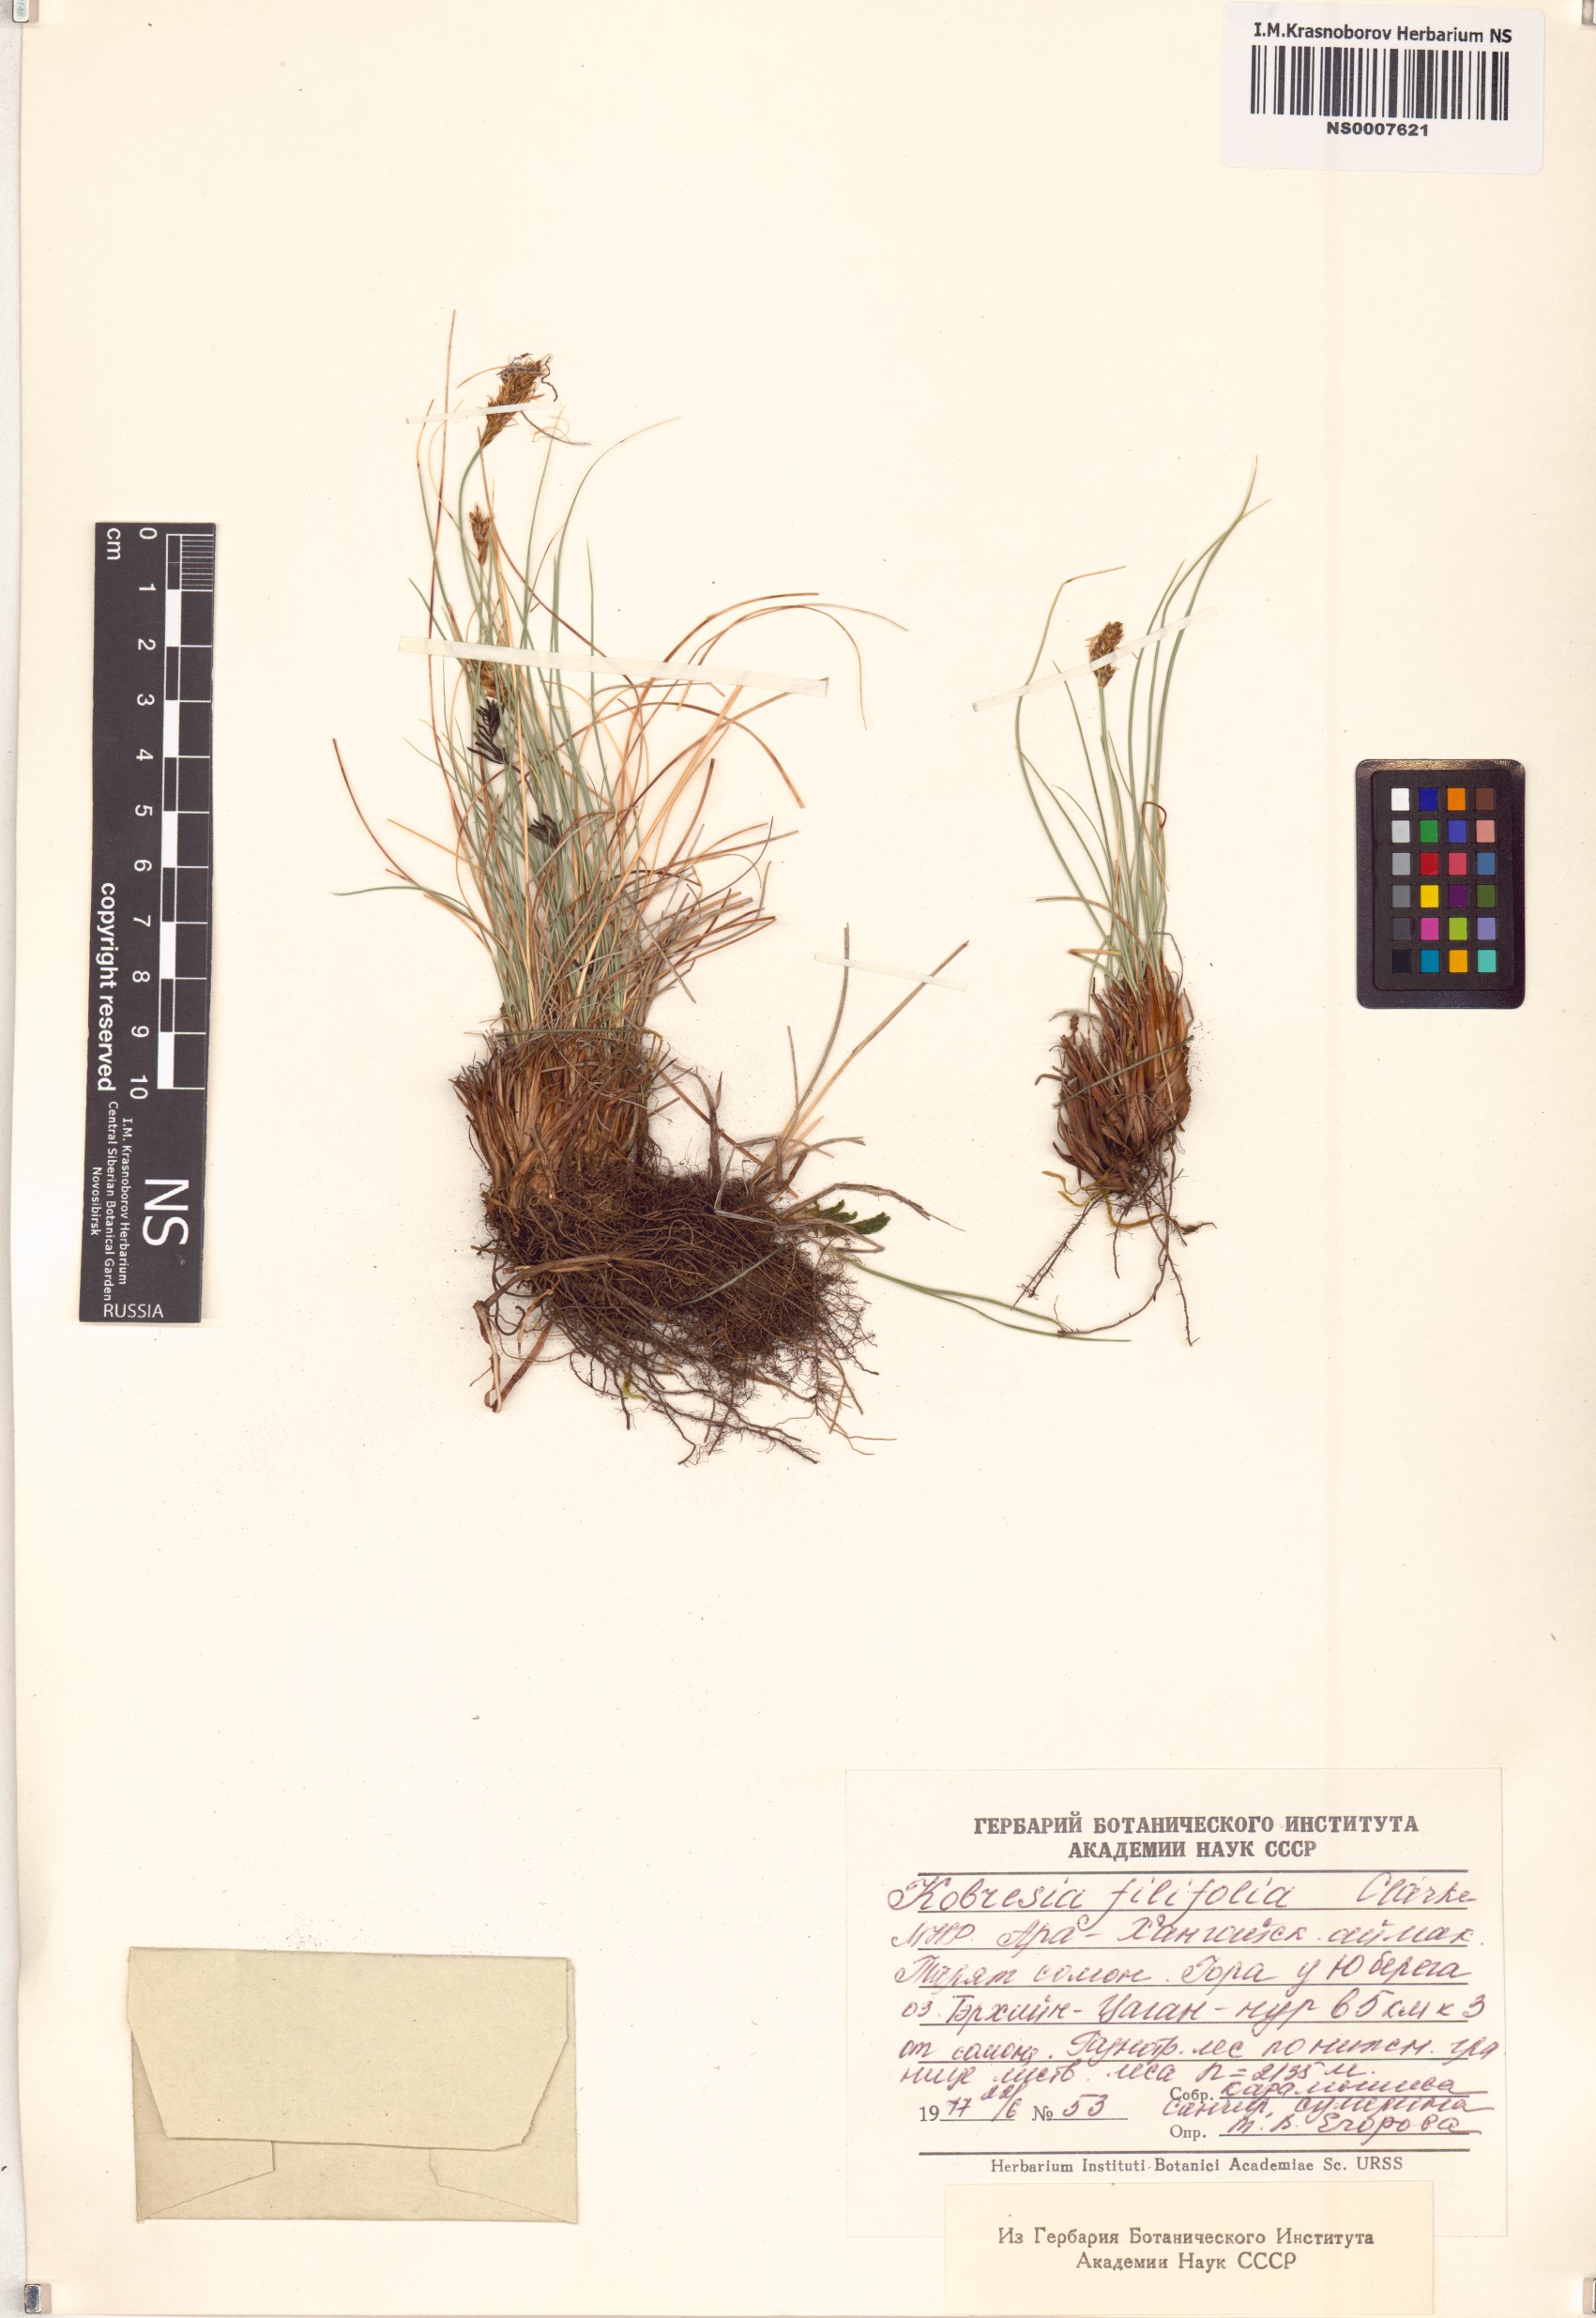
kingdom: Plantae
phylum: Tracheophyta
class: Liliopsida
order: Poales
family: Cyperaceae
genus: Carex
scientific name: Carex macroprophylla
